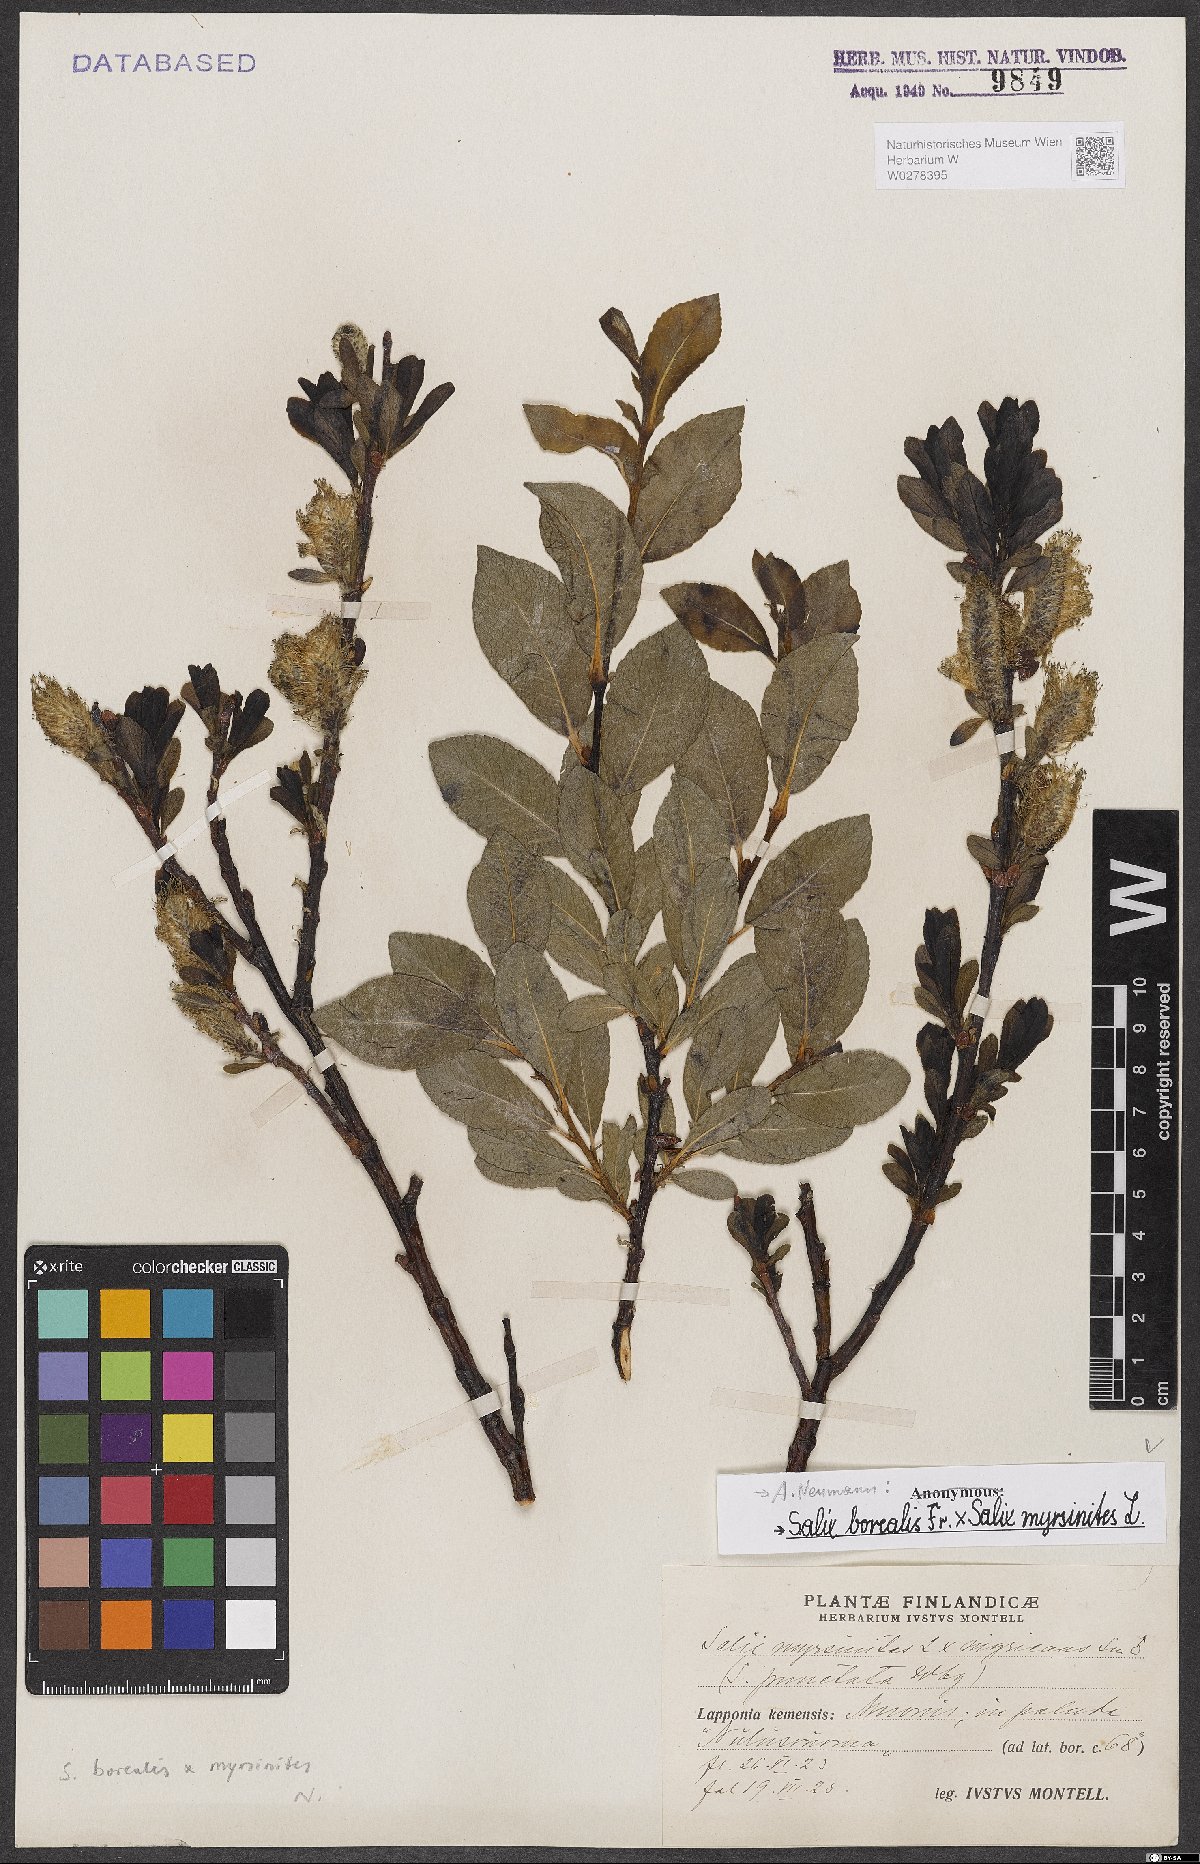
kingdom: Plantae
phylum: Tracheophyta
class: Magnoliopsida
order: Malpighiales
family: Salicaceae
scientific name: Salicaceae
